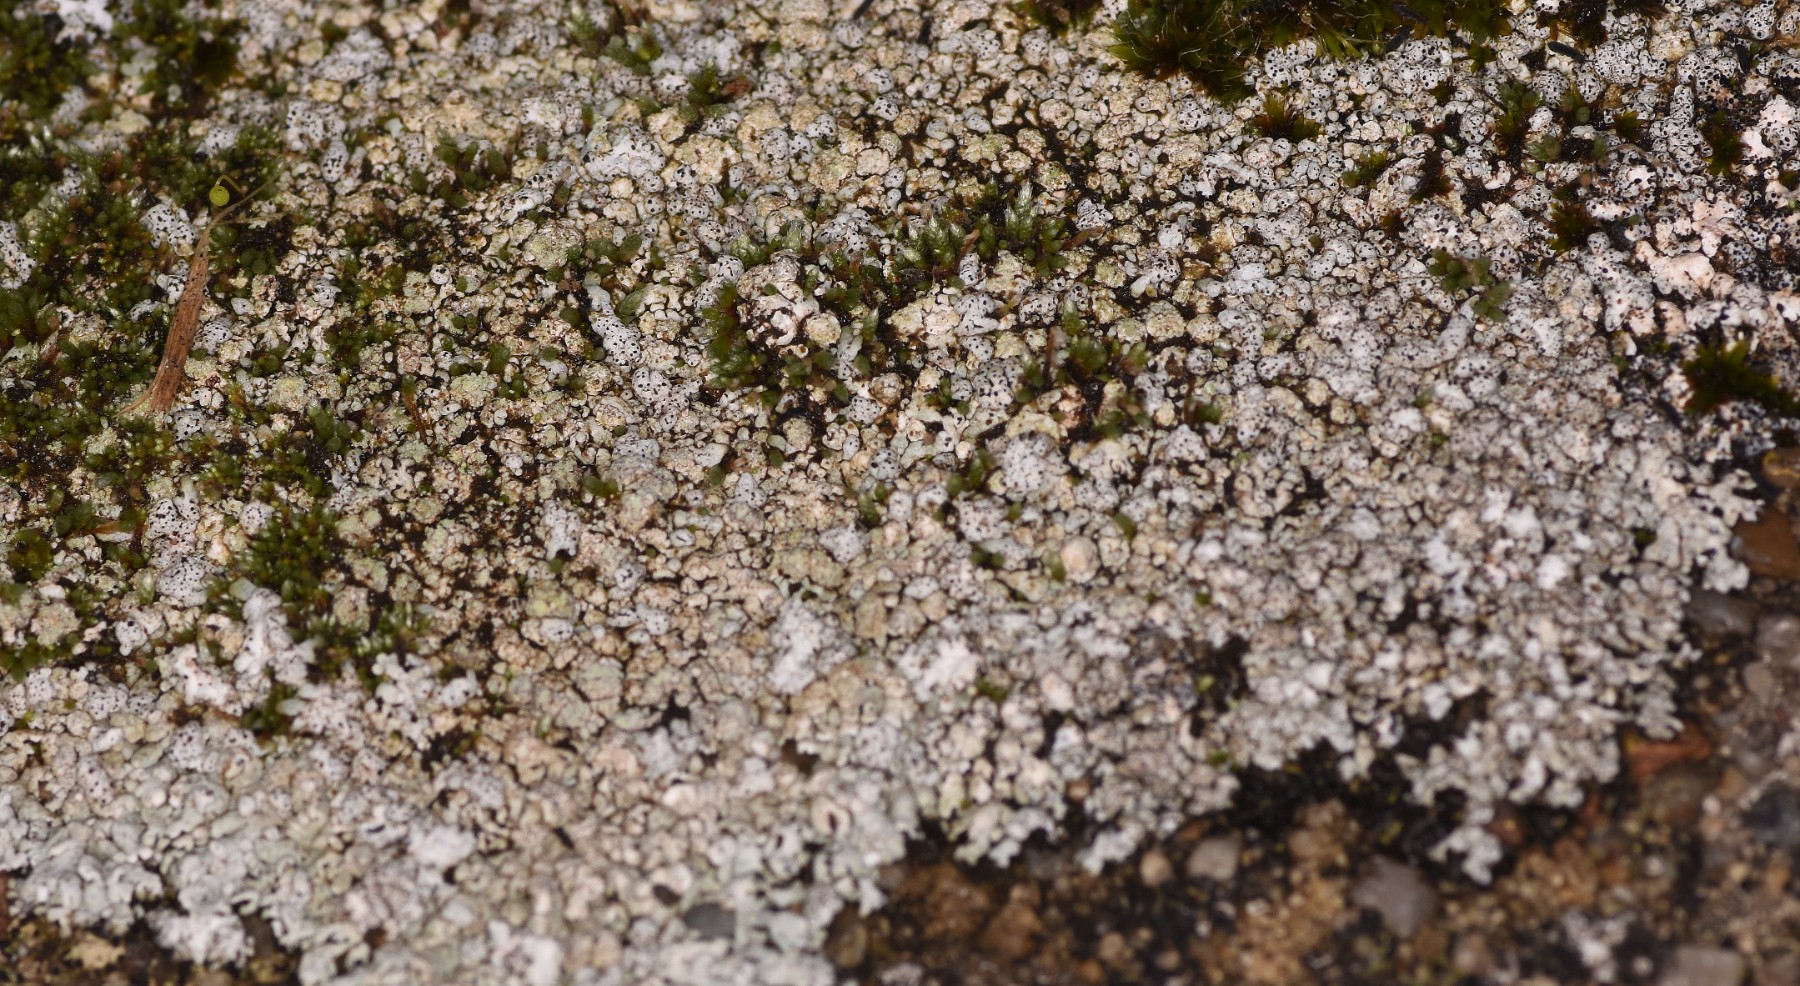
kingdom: Fungi
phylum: Ascomycota
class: Lecanoromycetes
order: Caliciales
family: Physciaceae
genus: Physcia
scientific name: Physcia caesia
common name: blågrå rosetlav
